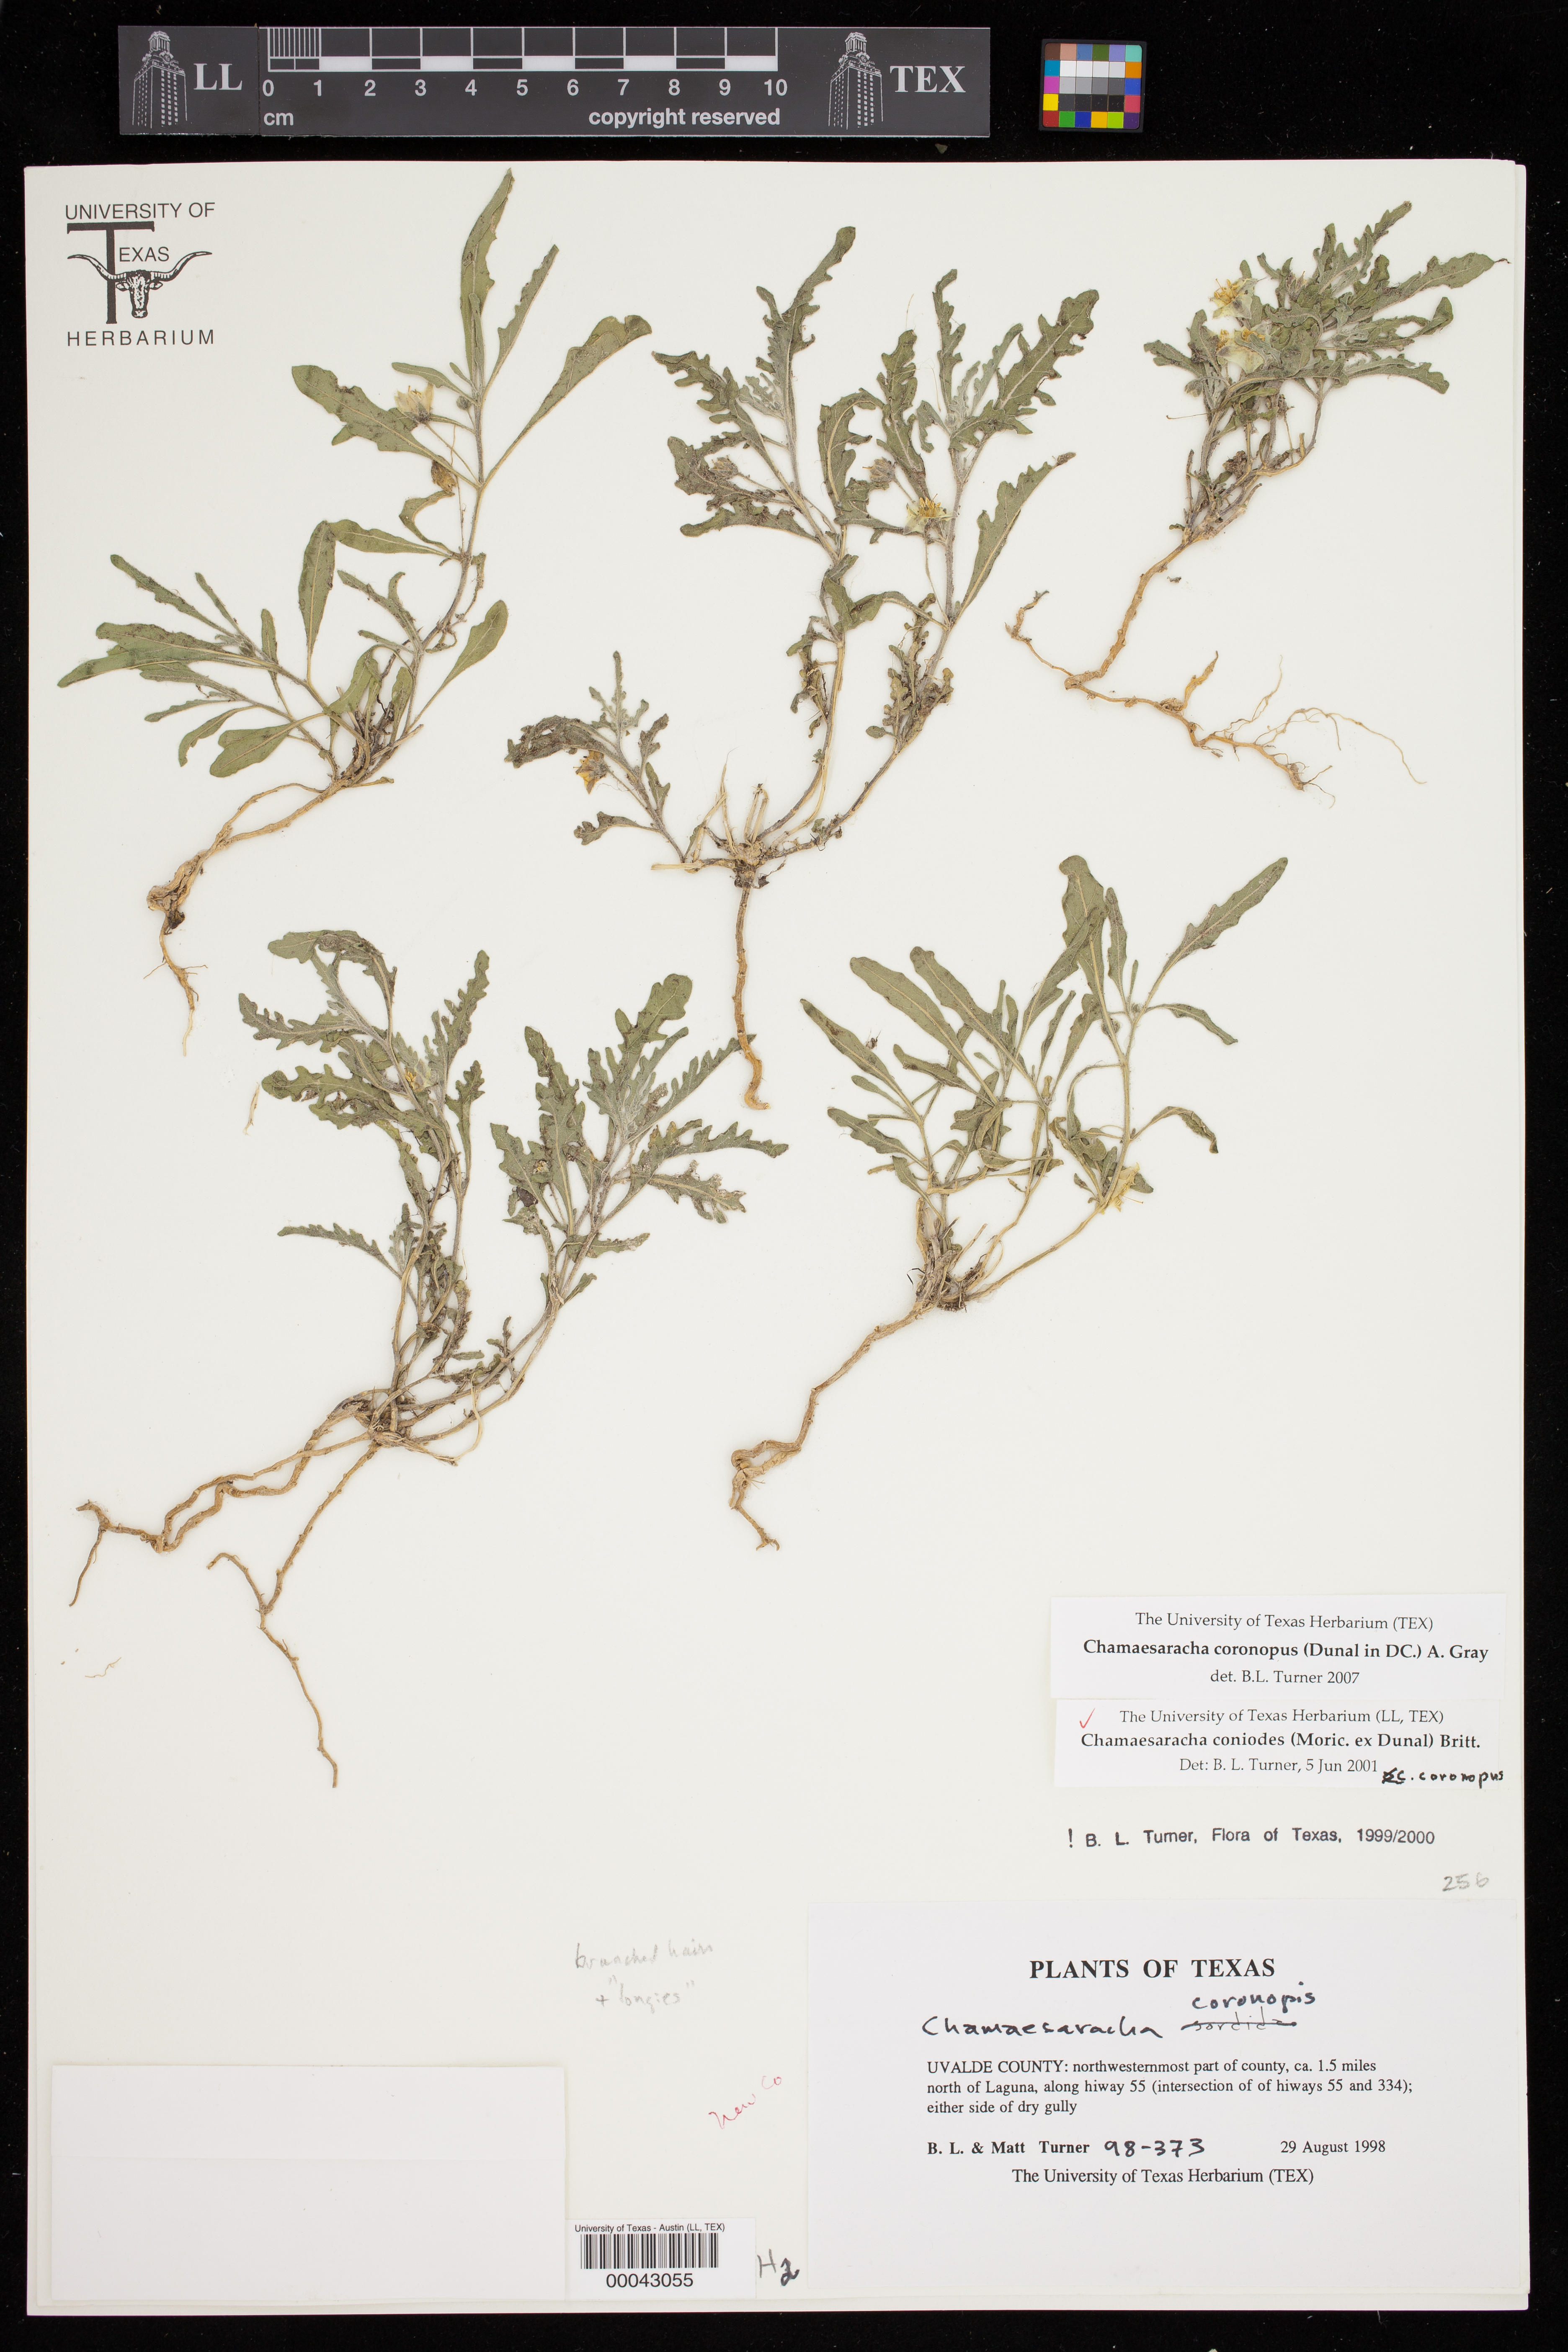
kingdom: Plantae
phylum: Tracheophyta
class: Magnoliopsida
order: Solanales
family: Solanaceae
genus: Chamaesaracha
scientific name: Chamaesaracha coniodes
